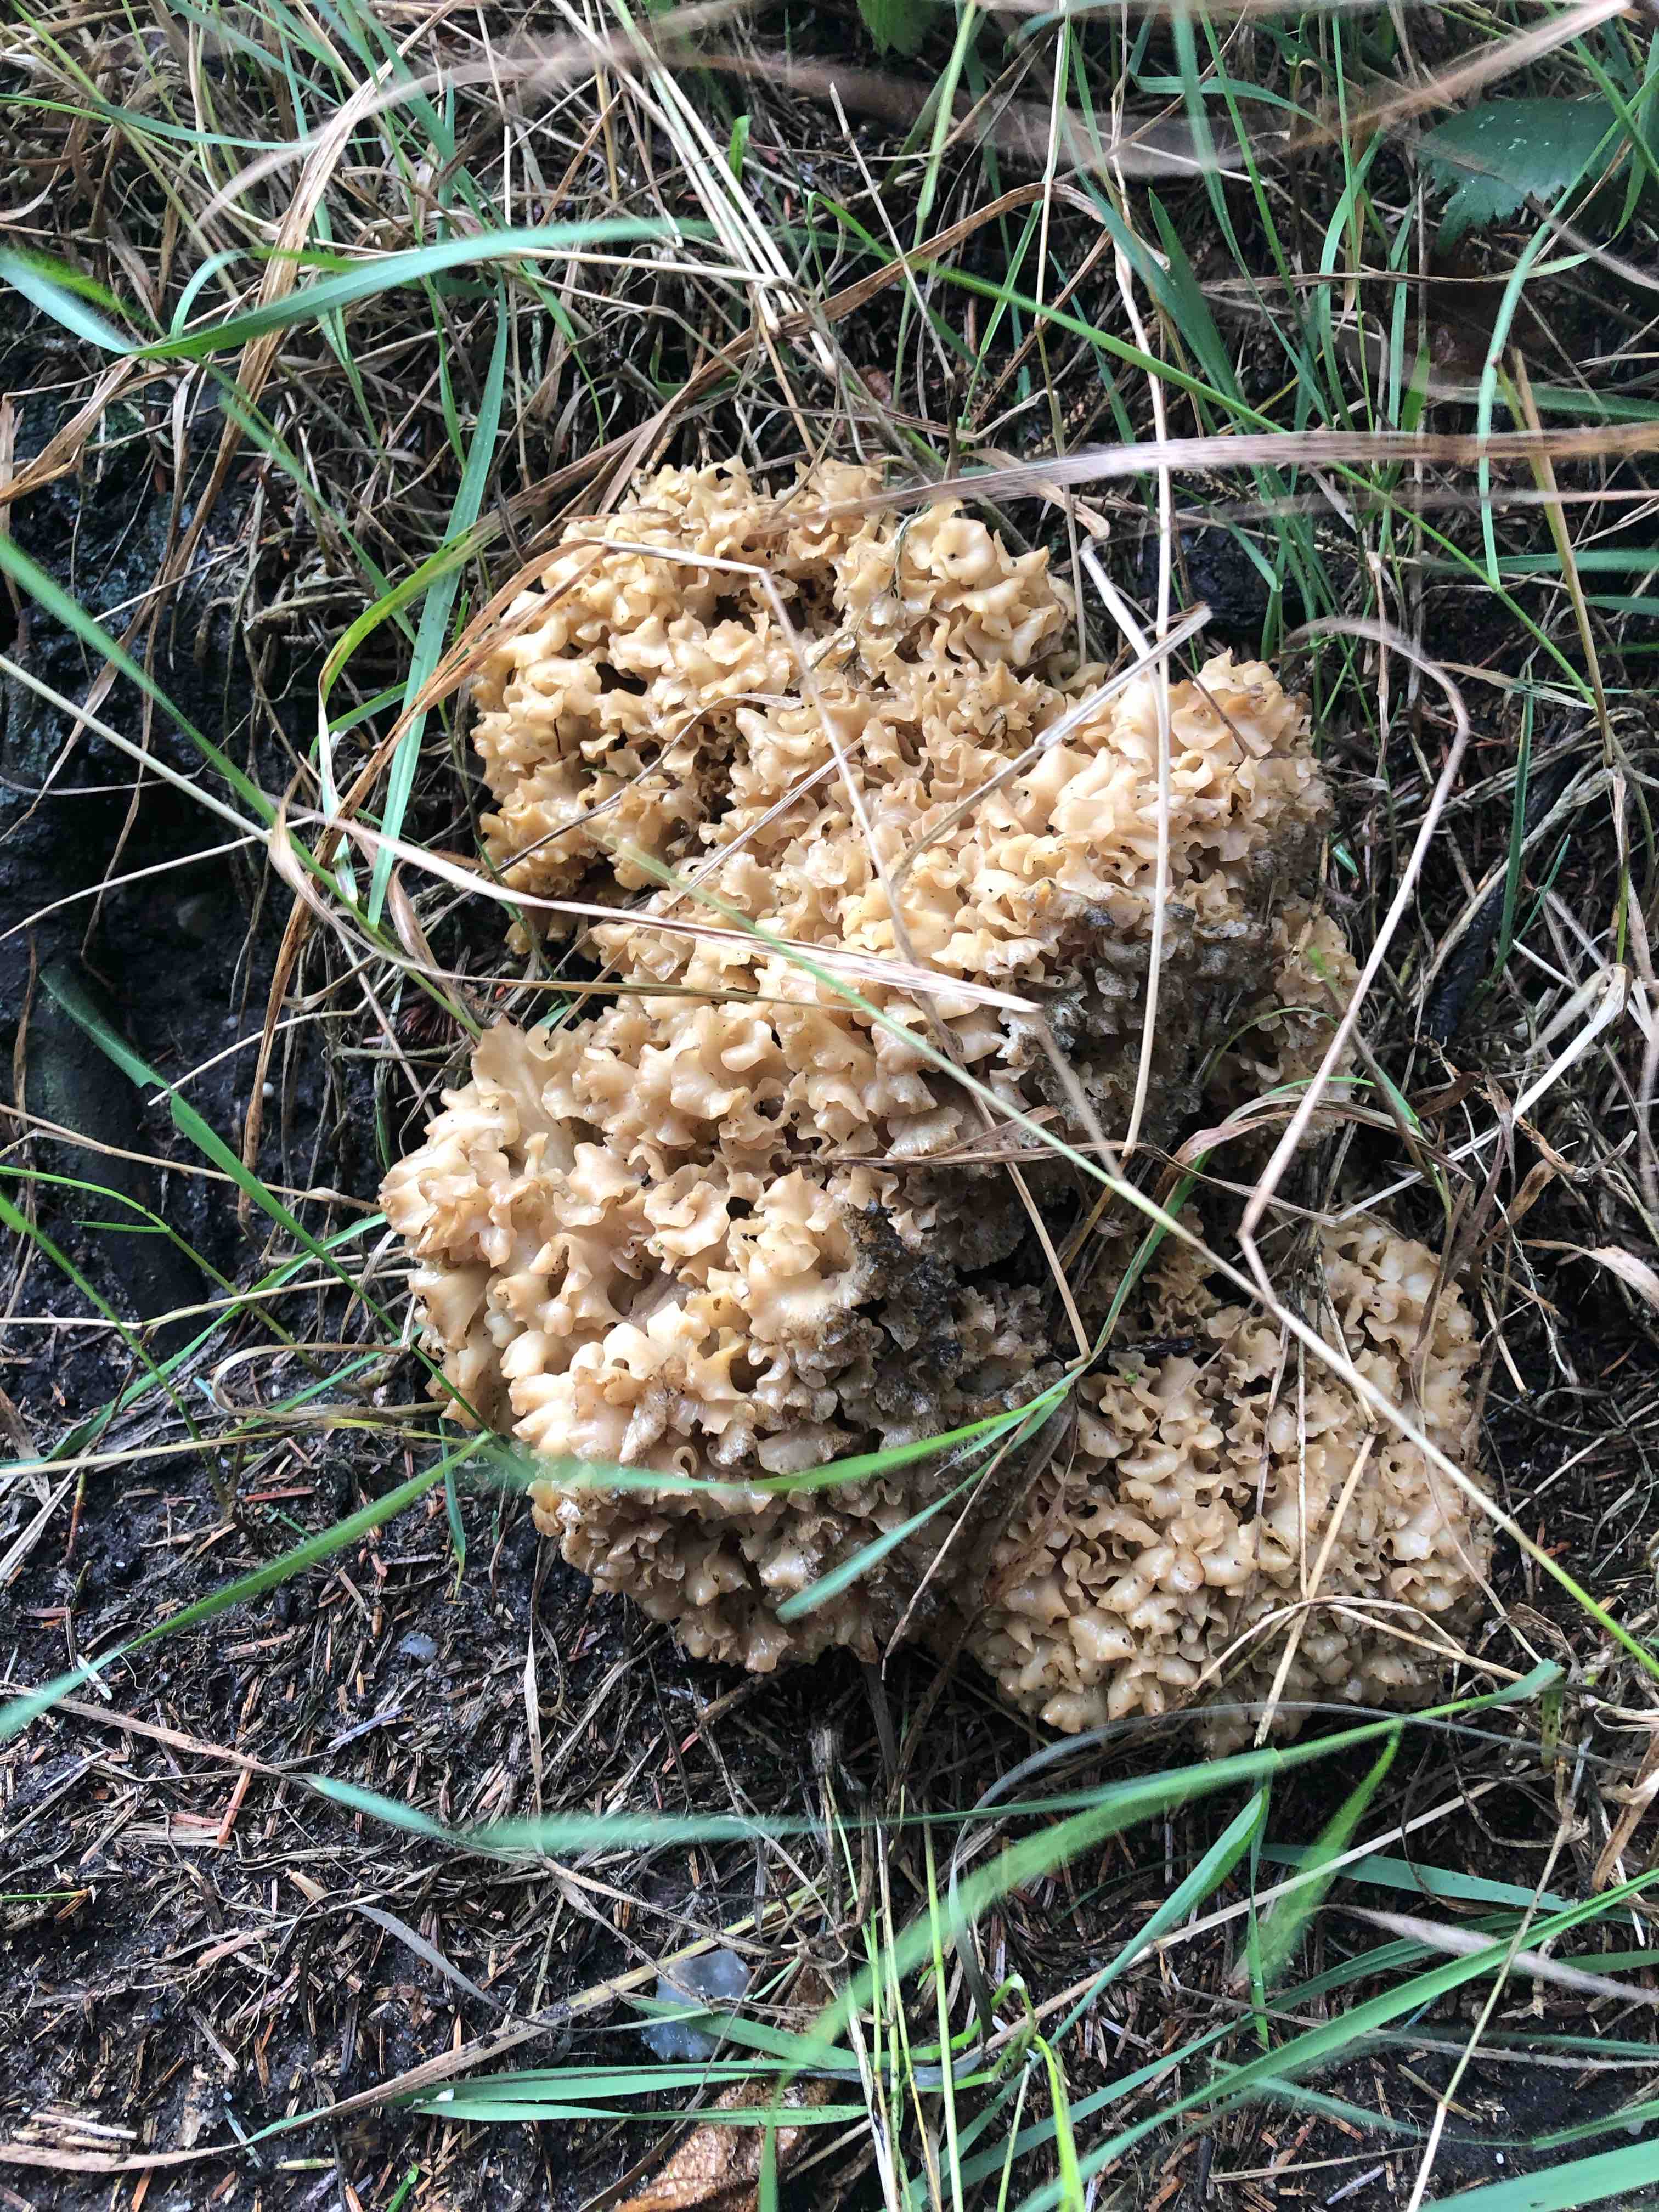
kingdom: Fungi
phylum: Basidiomycota
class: Agaricomycetes
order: Polyporales
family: Sparassidaceae
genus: Sparassis
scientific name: Sparassis crispa
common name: kruset blomkålssvamp
